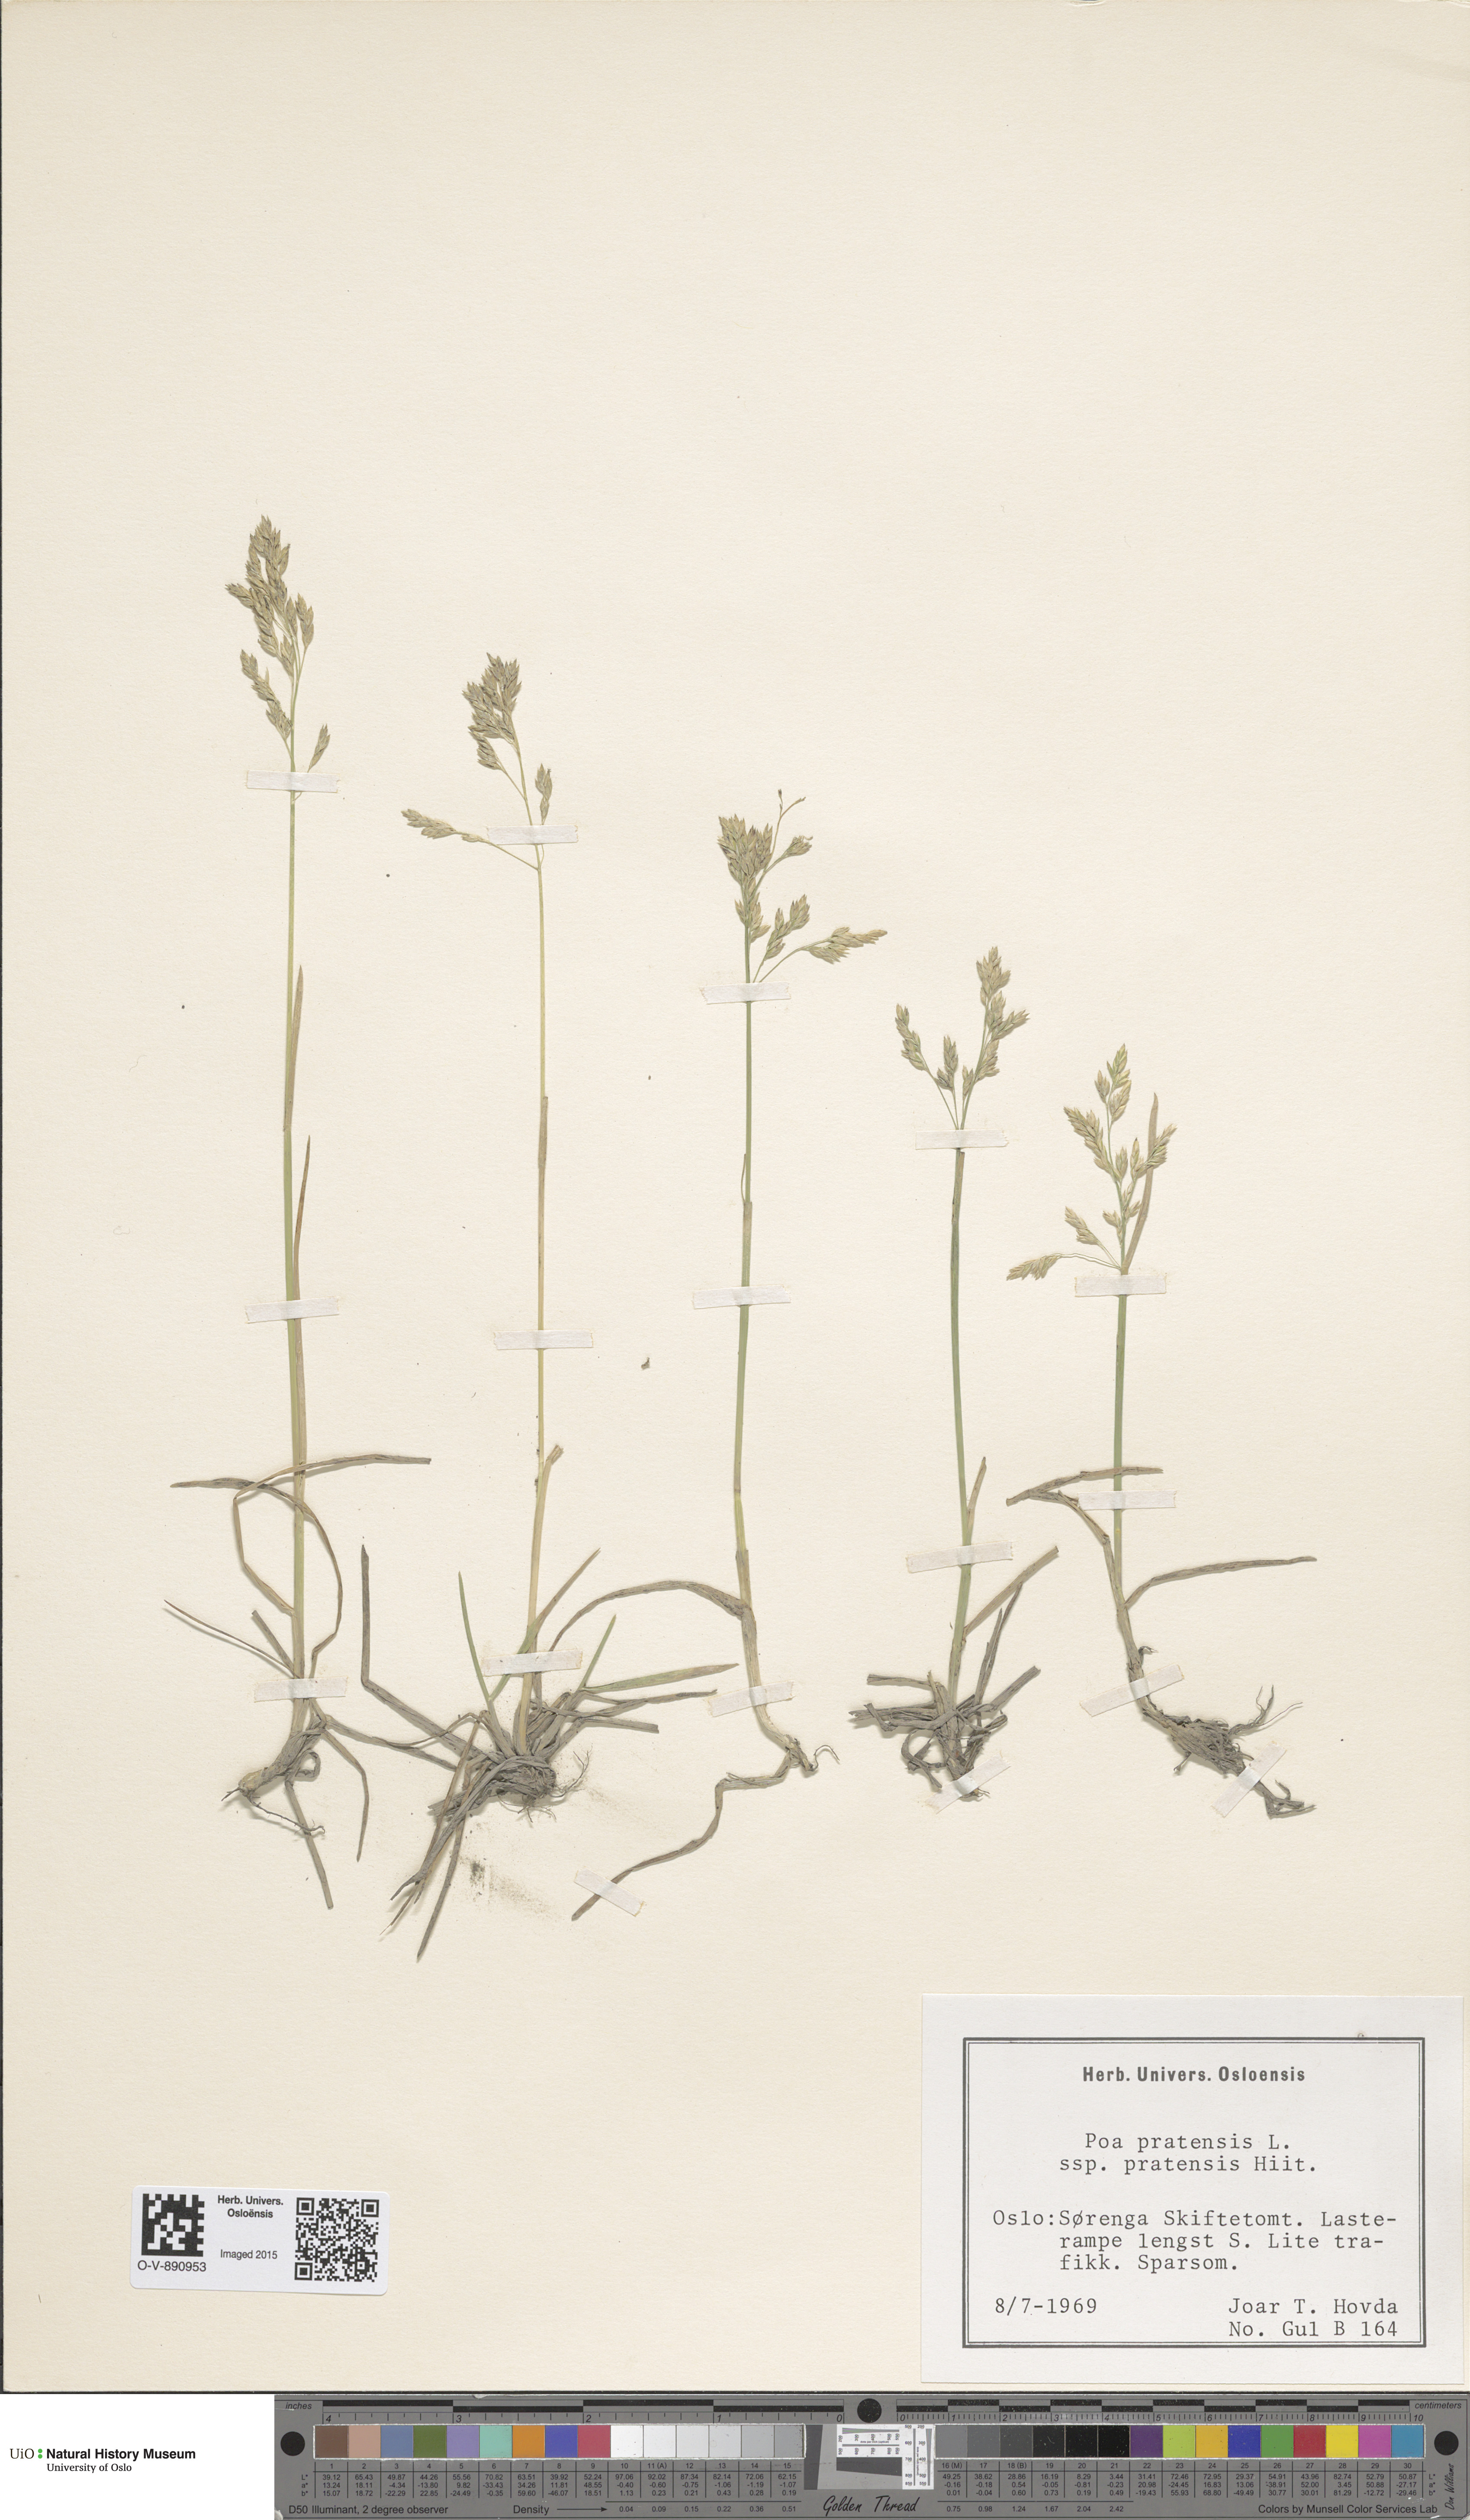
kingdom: Plantae
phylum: Tracheophyta
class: Liliopsida
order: Poales
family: Poaceae
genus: Poa
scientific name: Poa pratensis
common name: Kentucky bluegrass
